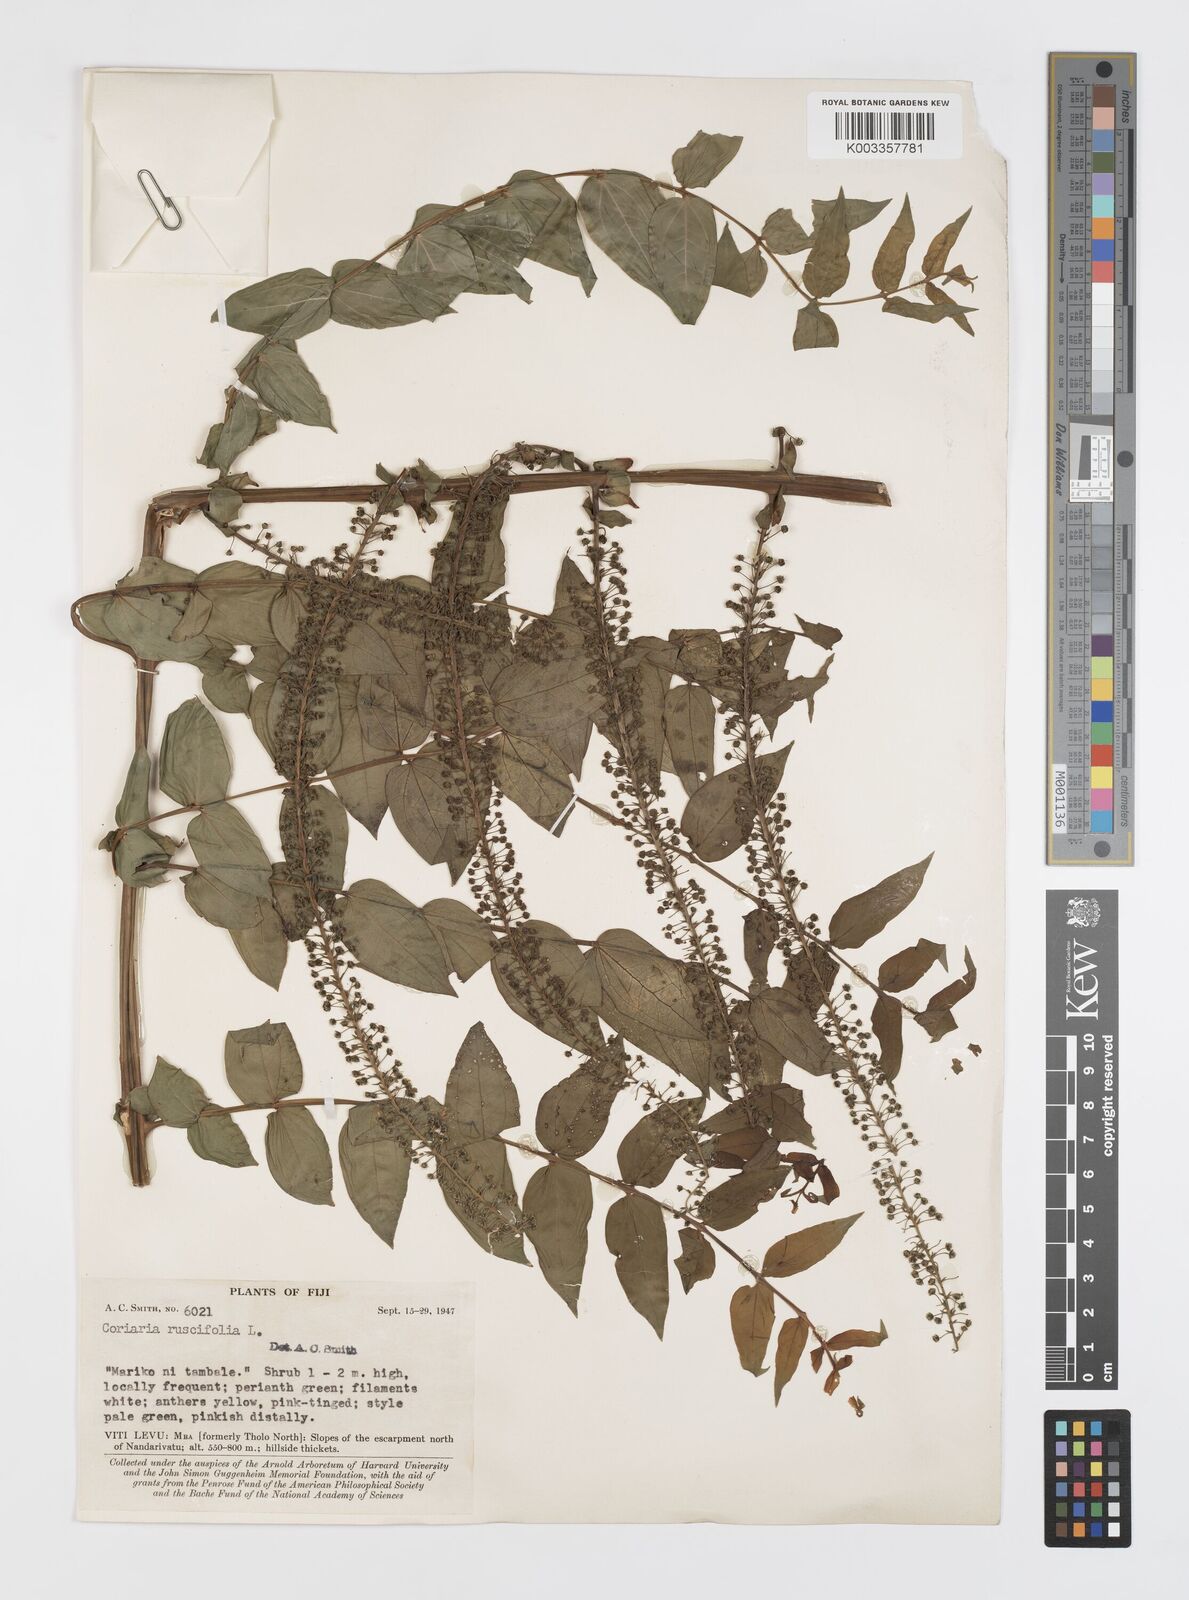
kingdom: Plantae
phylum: Tracheophyta
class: Magnoliopsida
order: Cucurbitales
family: Coriariaceae
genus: Coriaria
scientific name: Coriaria ruscifolia
